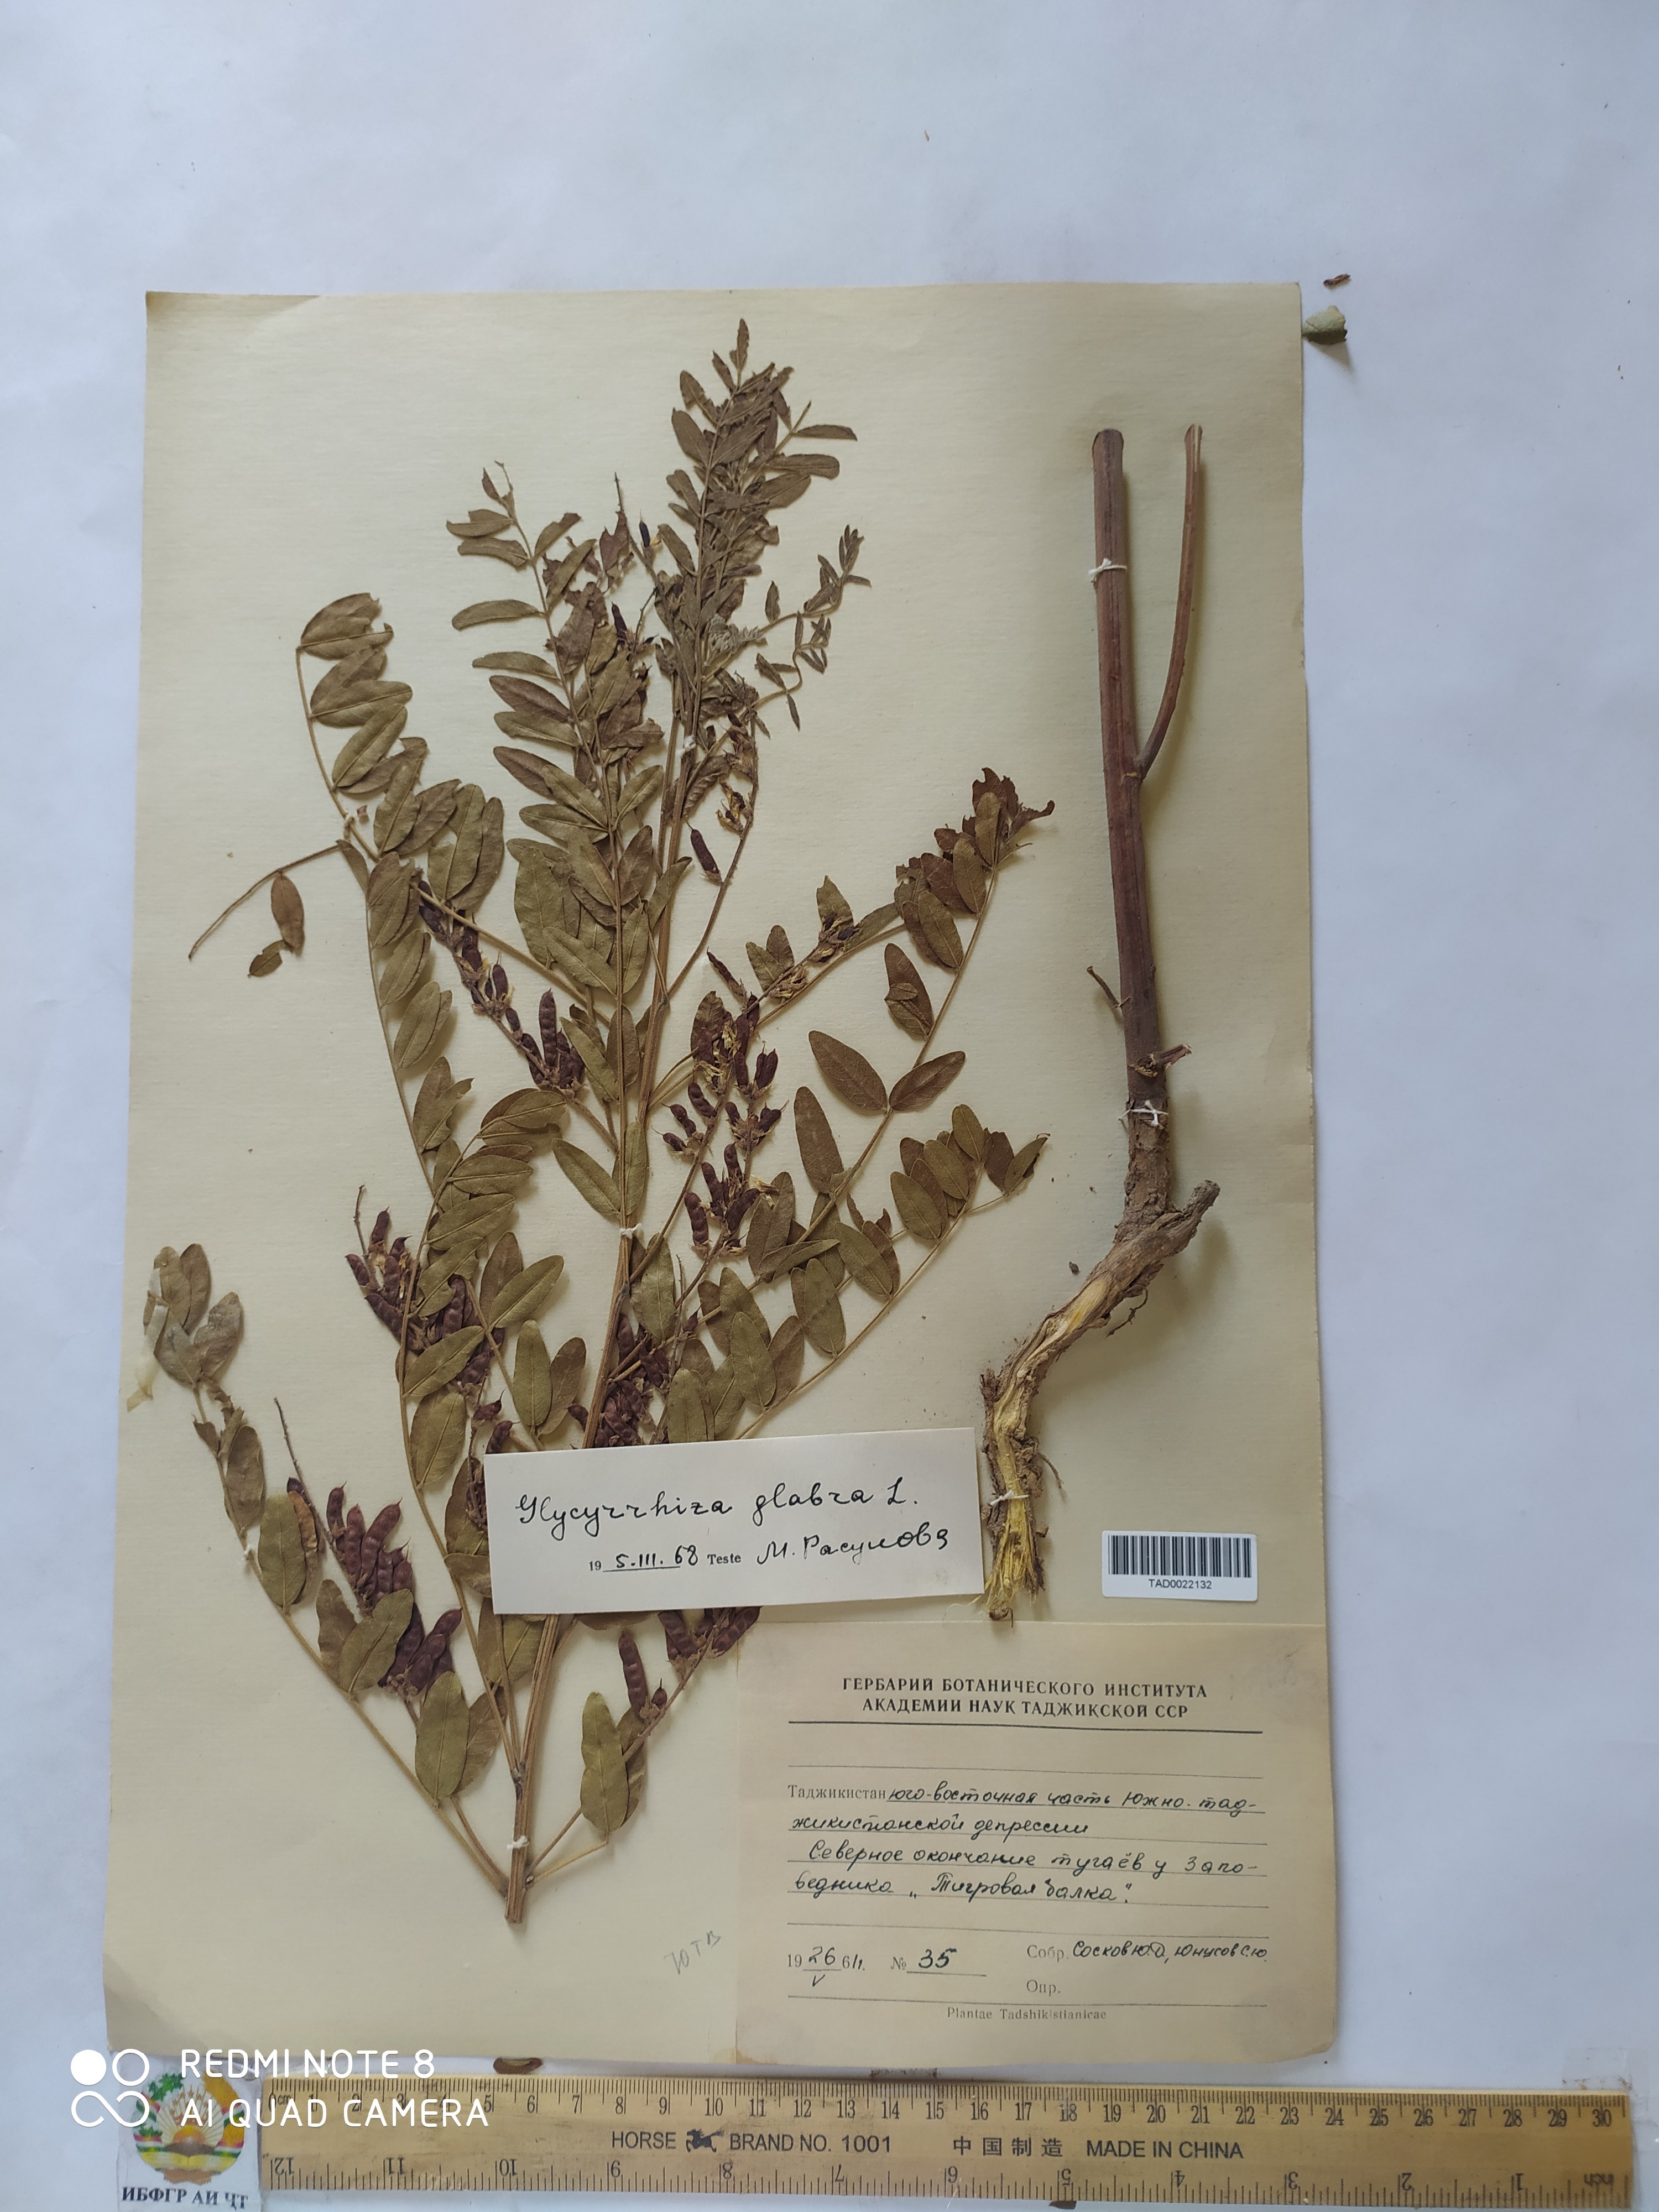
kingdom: Plantae
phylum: Tracheophyta
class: Magnoliopsida
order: Fabales
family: Fabaceae
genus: Glycyrrhiza
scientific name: Glycyrrhiza glabra
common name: Liquorice
